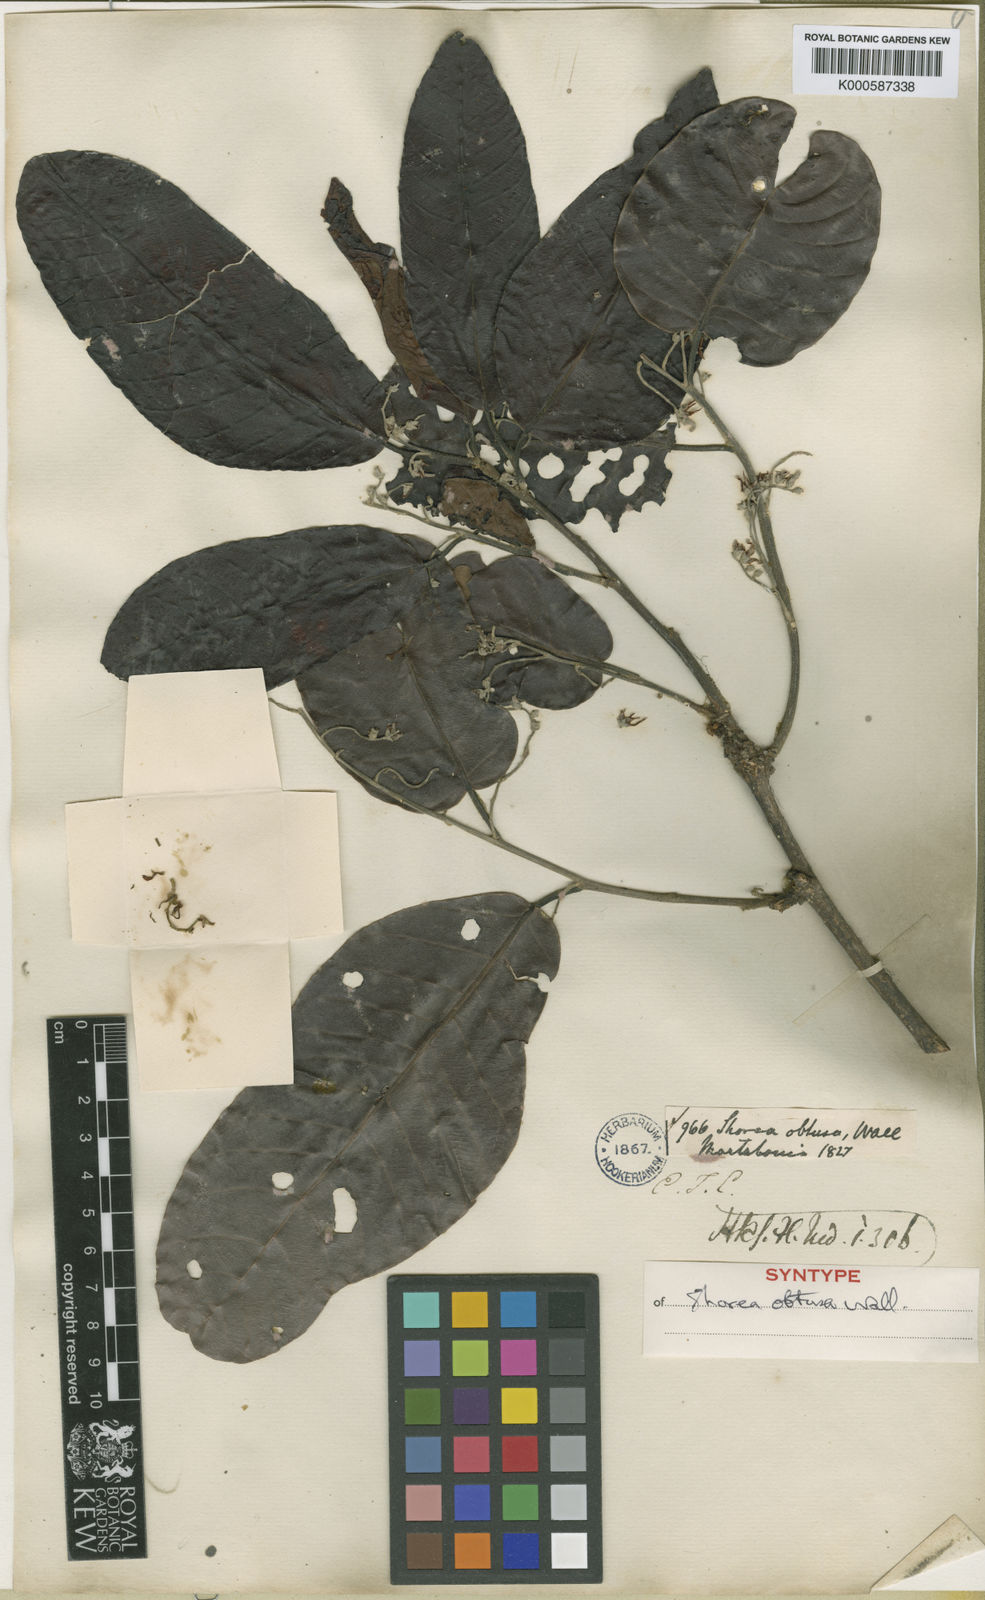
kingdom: Plantae
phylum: Tracheophyta
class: Magnoliopsida
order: Malvales
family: Dipterocarpaceae
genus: Shorea
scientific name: Shorea
